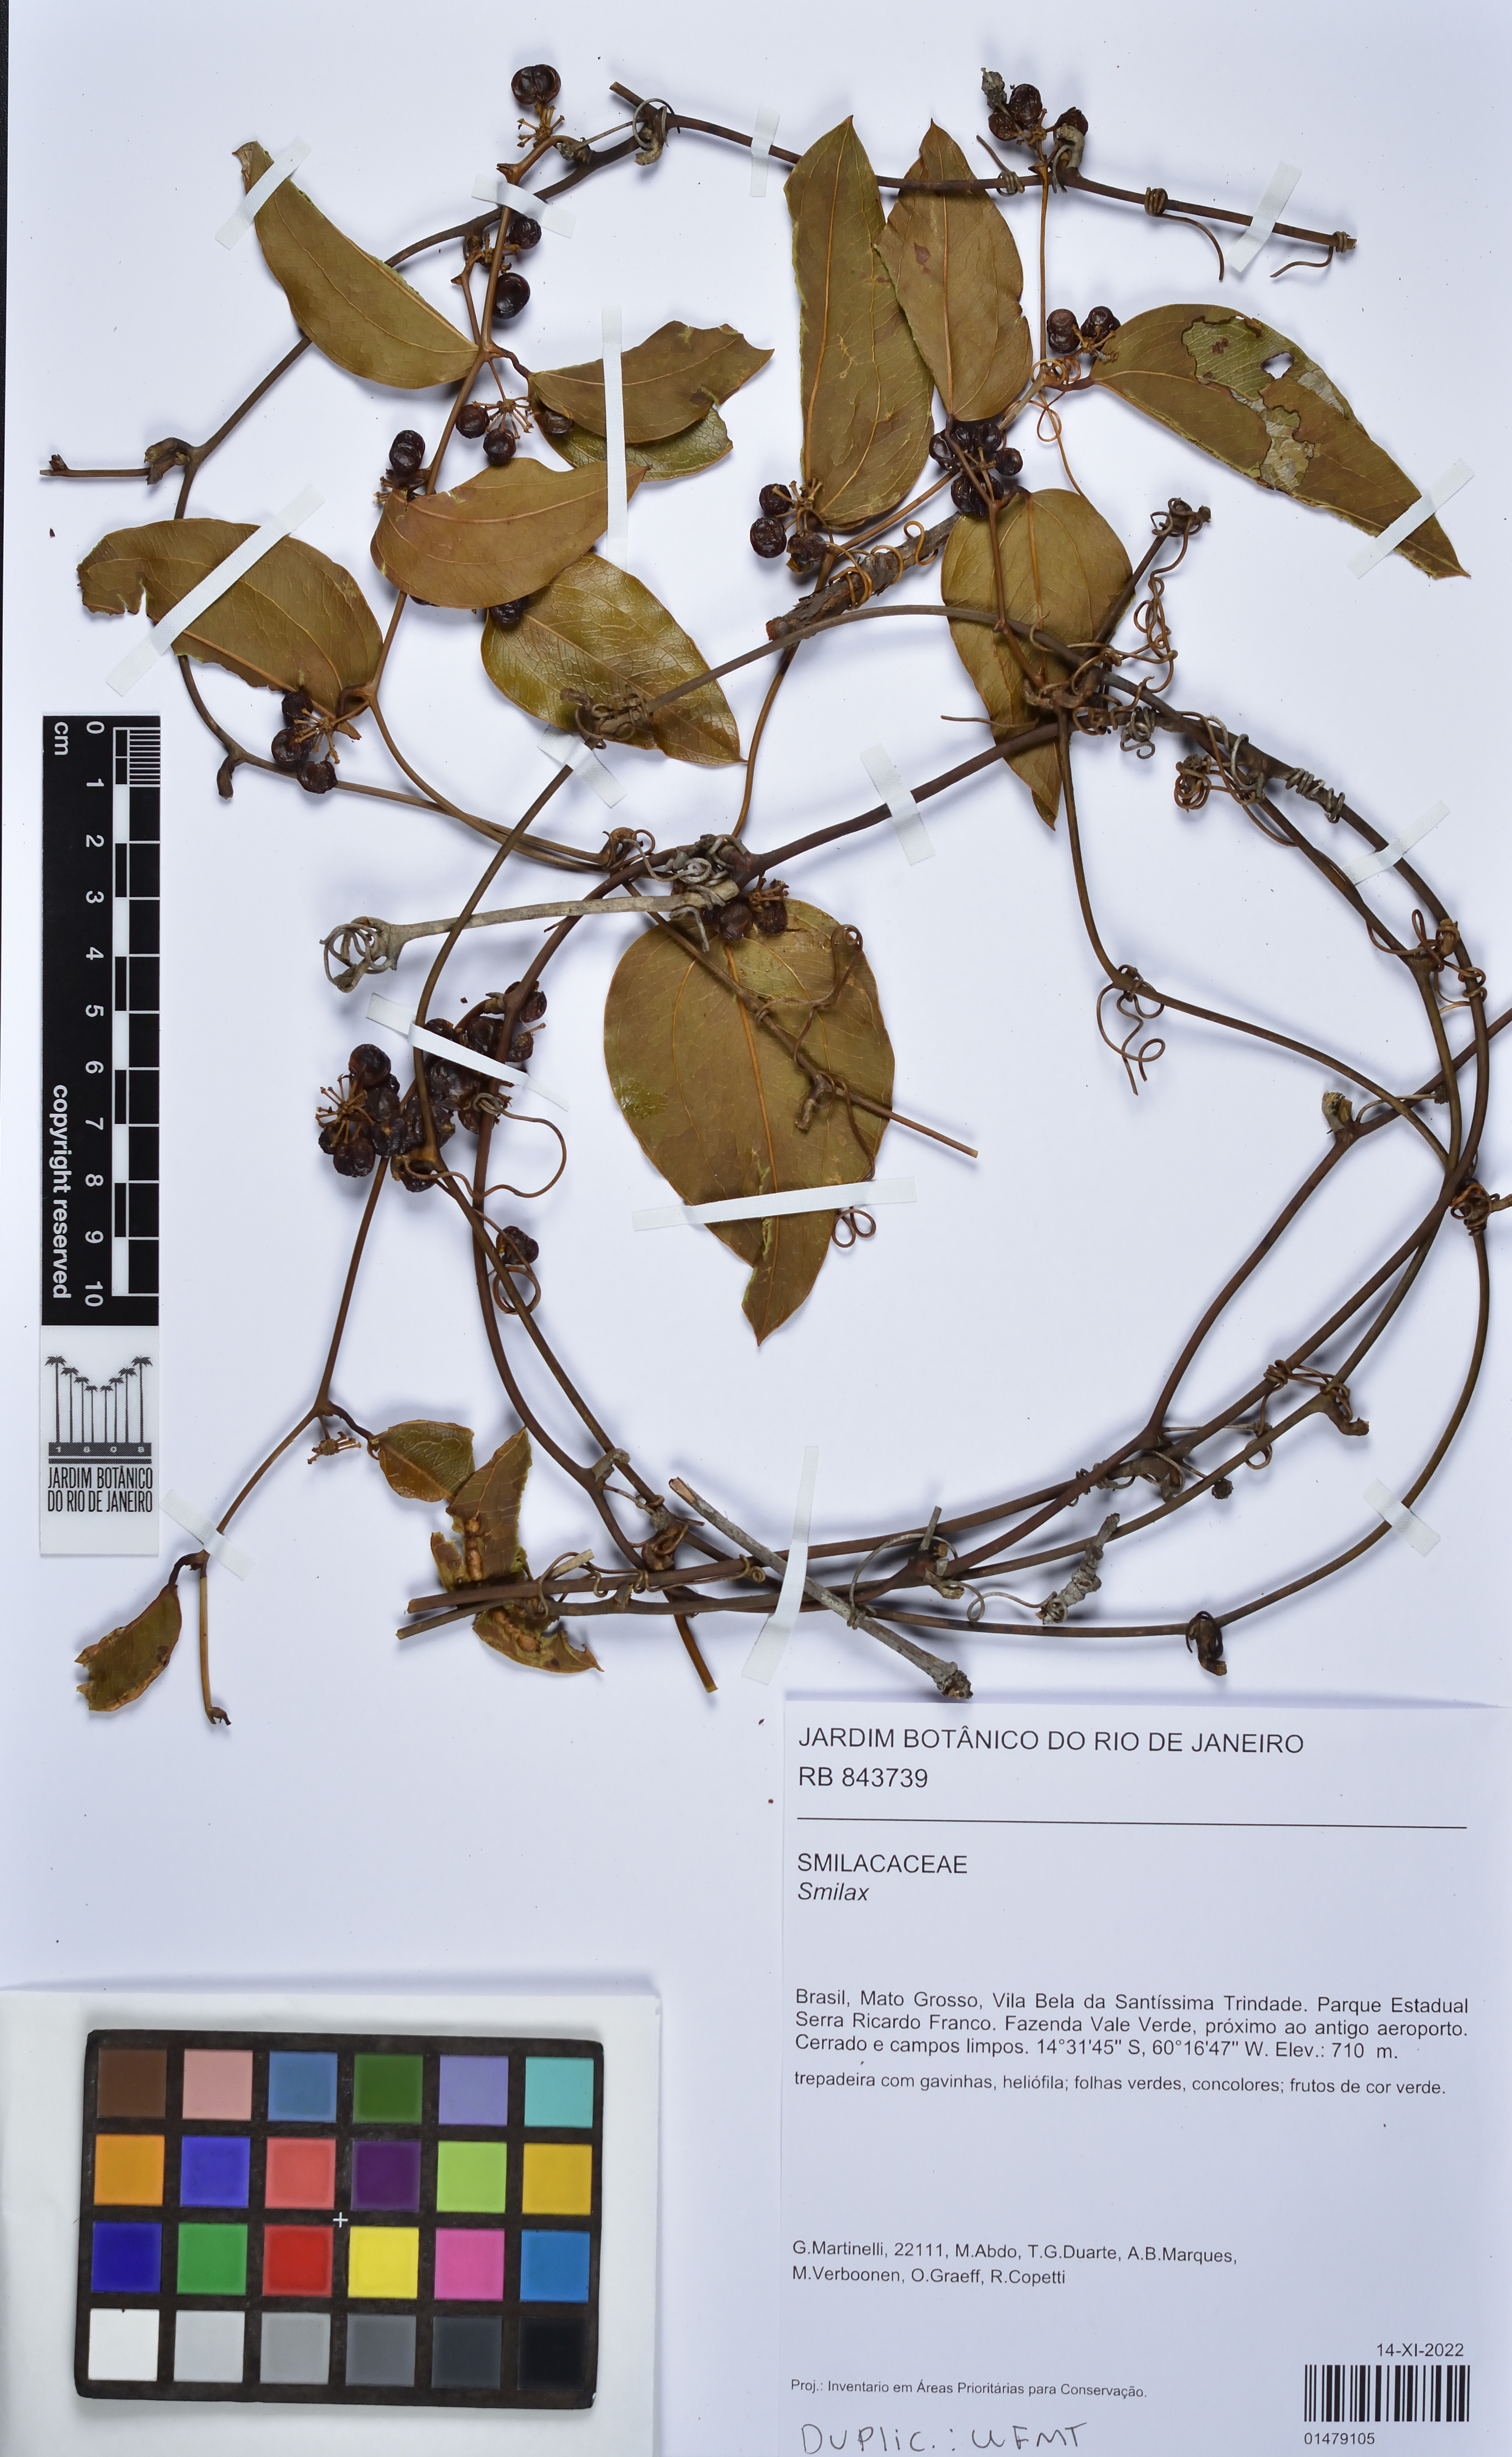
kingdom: Plantae
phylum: Tracheophyta
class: Liliopsida
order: Liliales
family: Smilacaceae
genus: Smilax
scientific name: Smilax
